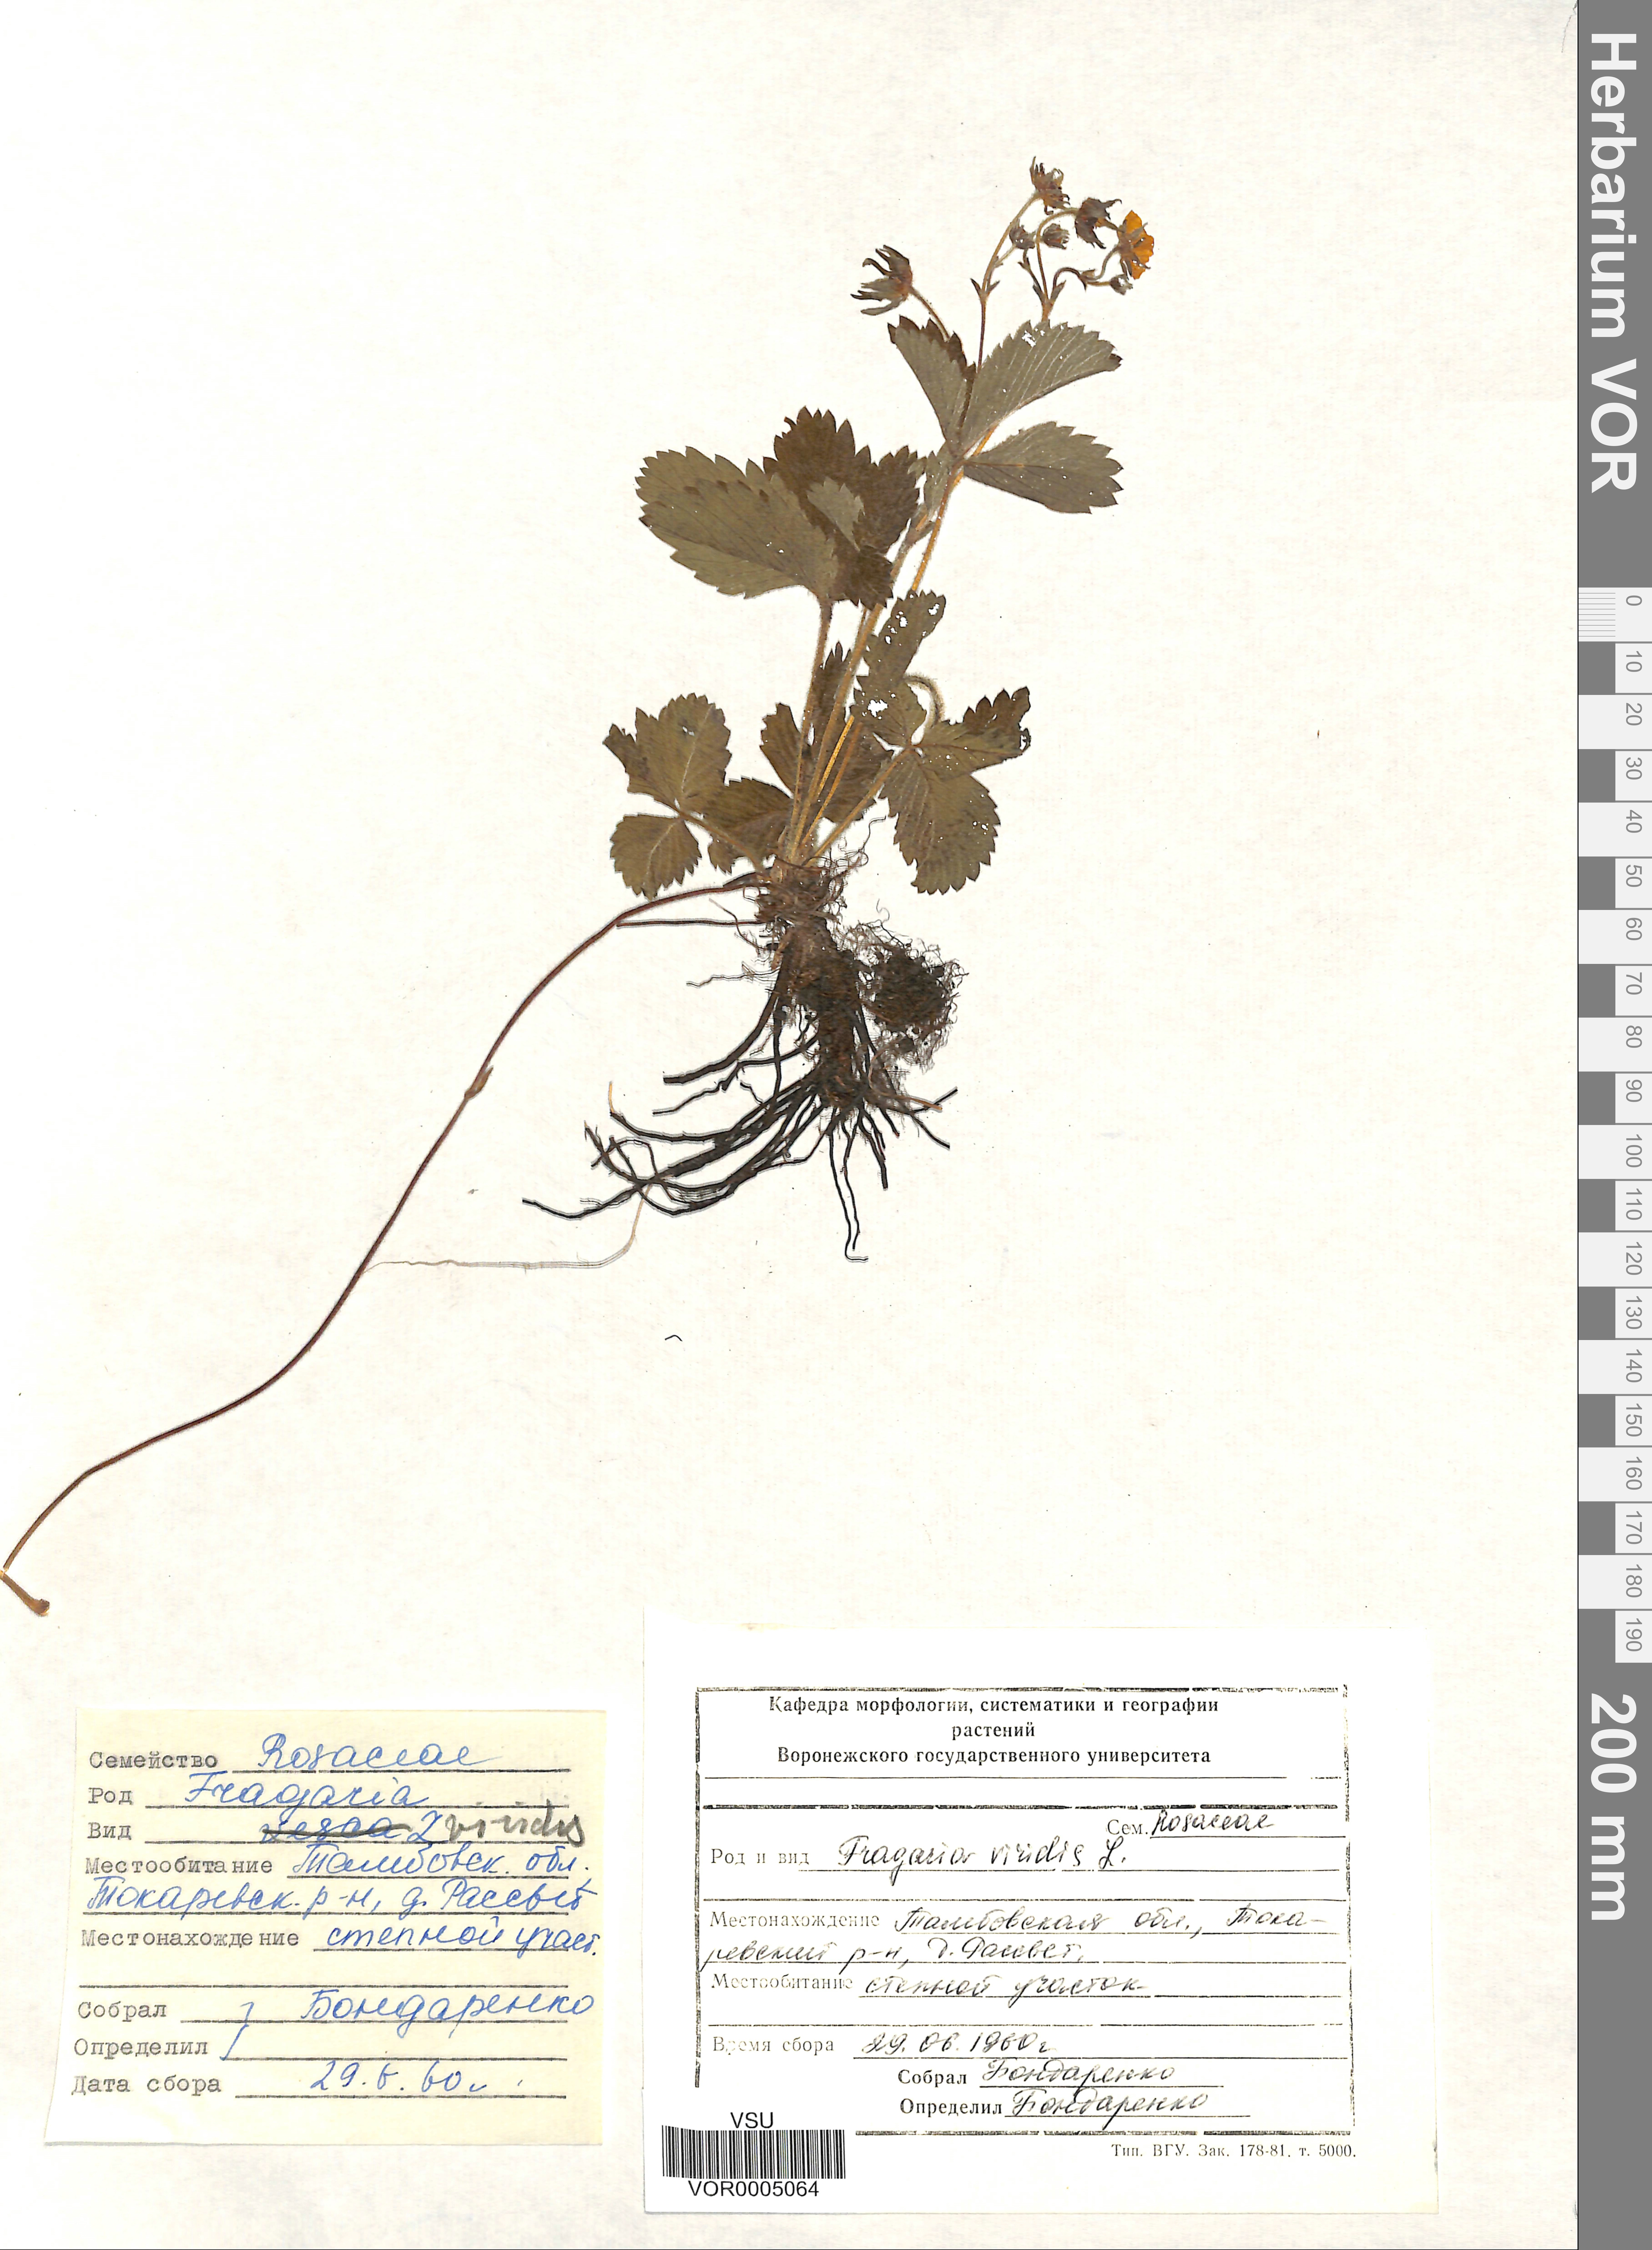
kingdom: Plantae
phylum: Tracheophyta
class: Magnoliopsida
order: Rosales
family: Rosaceae
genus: Fragaria
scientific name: Fragaria viridis
